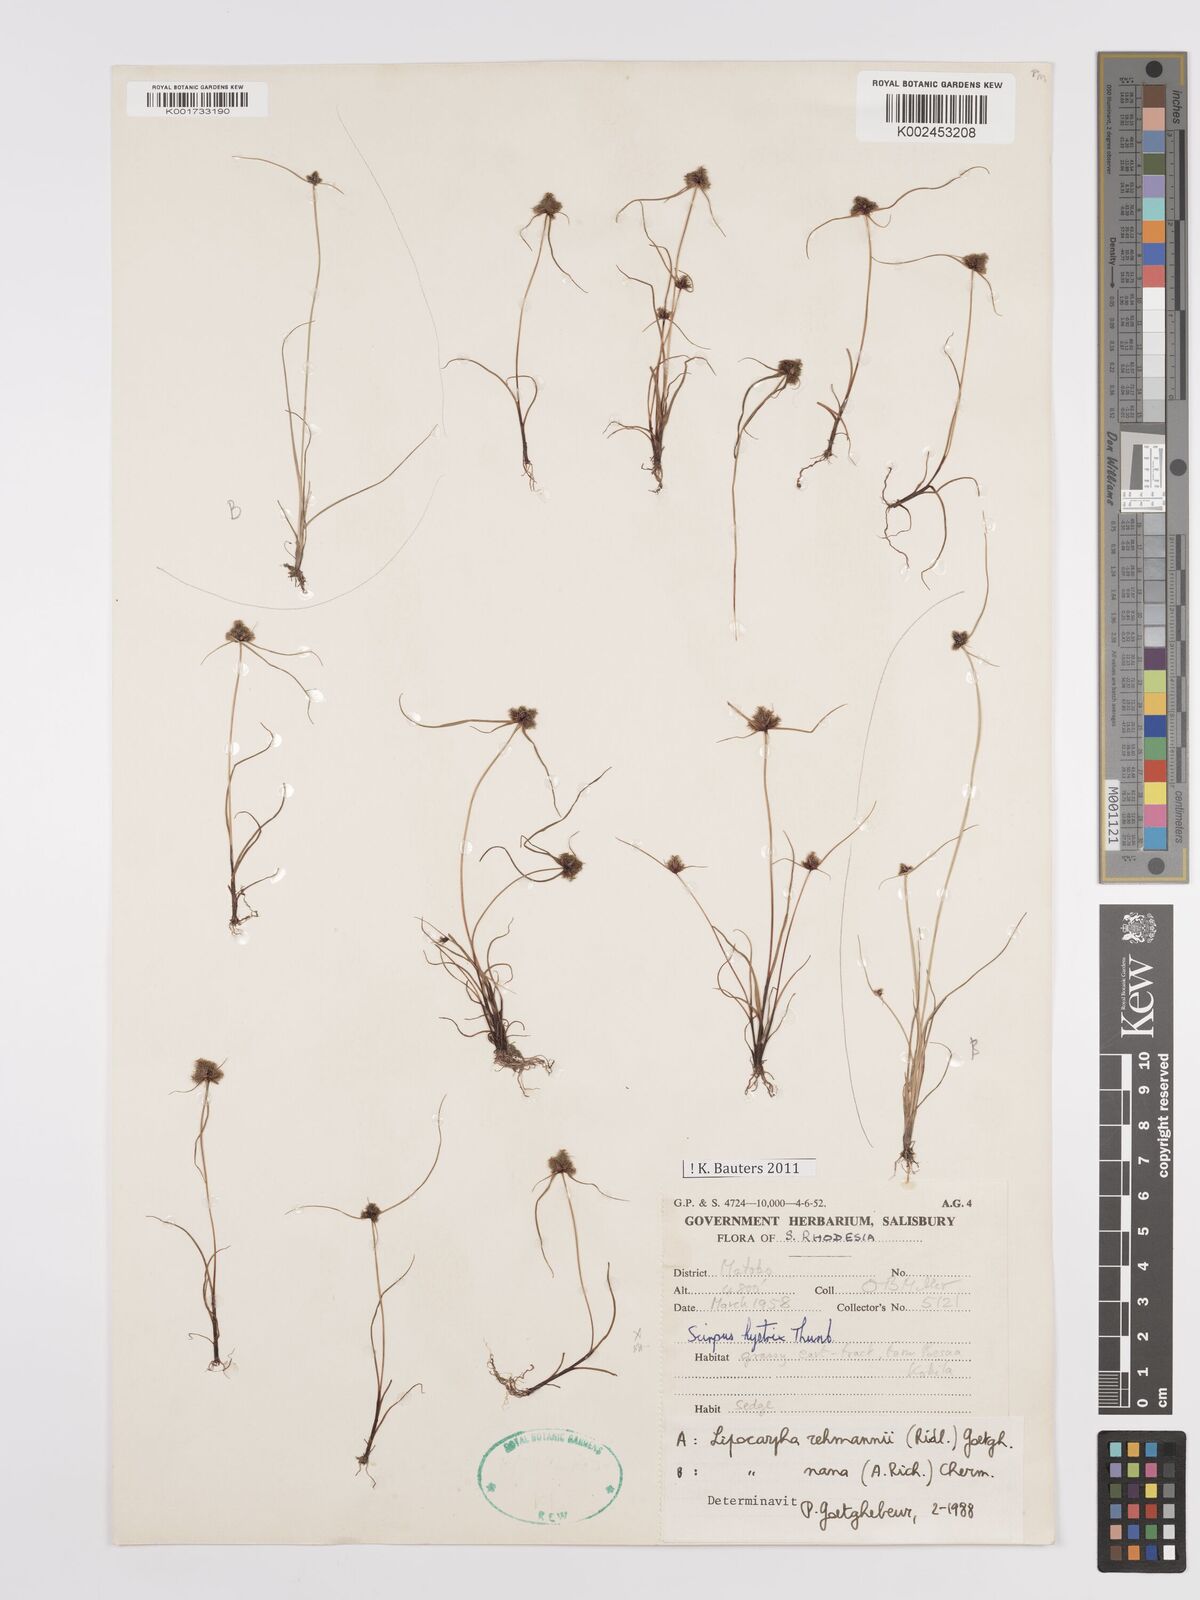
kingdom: Plantae
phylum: Tracheophyta
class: Liliopsida
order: Poales
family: Cyperaceae
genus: Cyperus
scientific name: Cyperus sanguinolentus
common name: Purpleglume flatsedge
